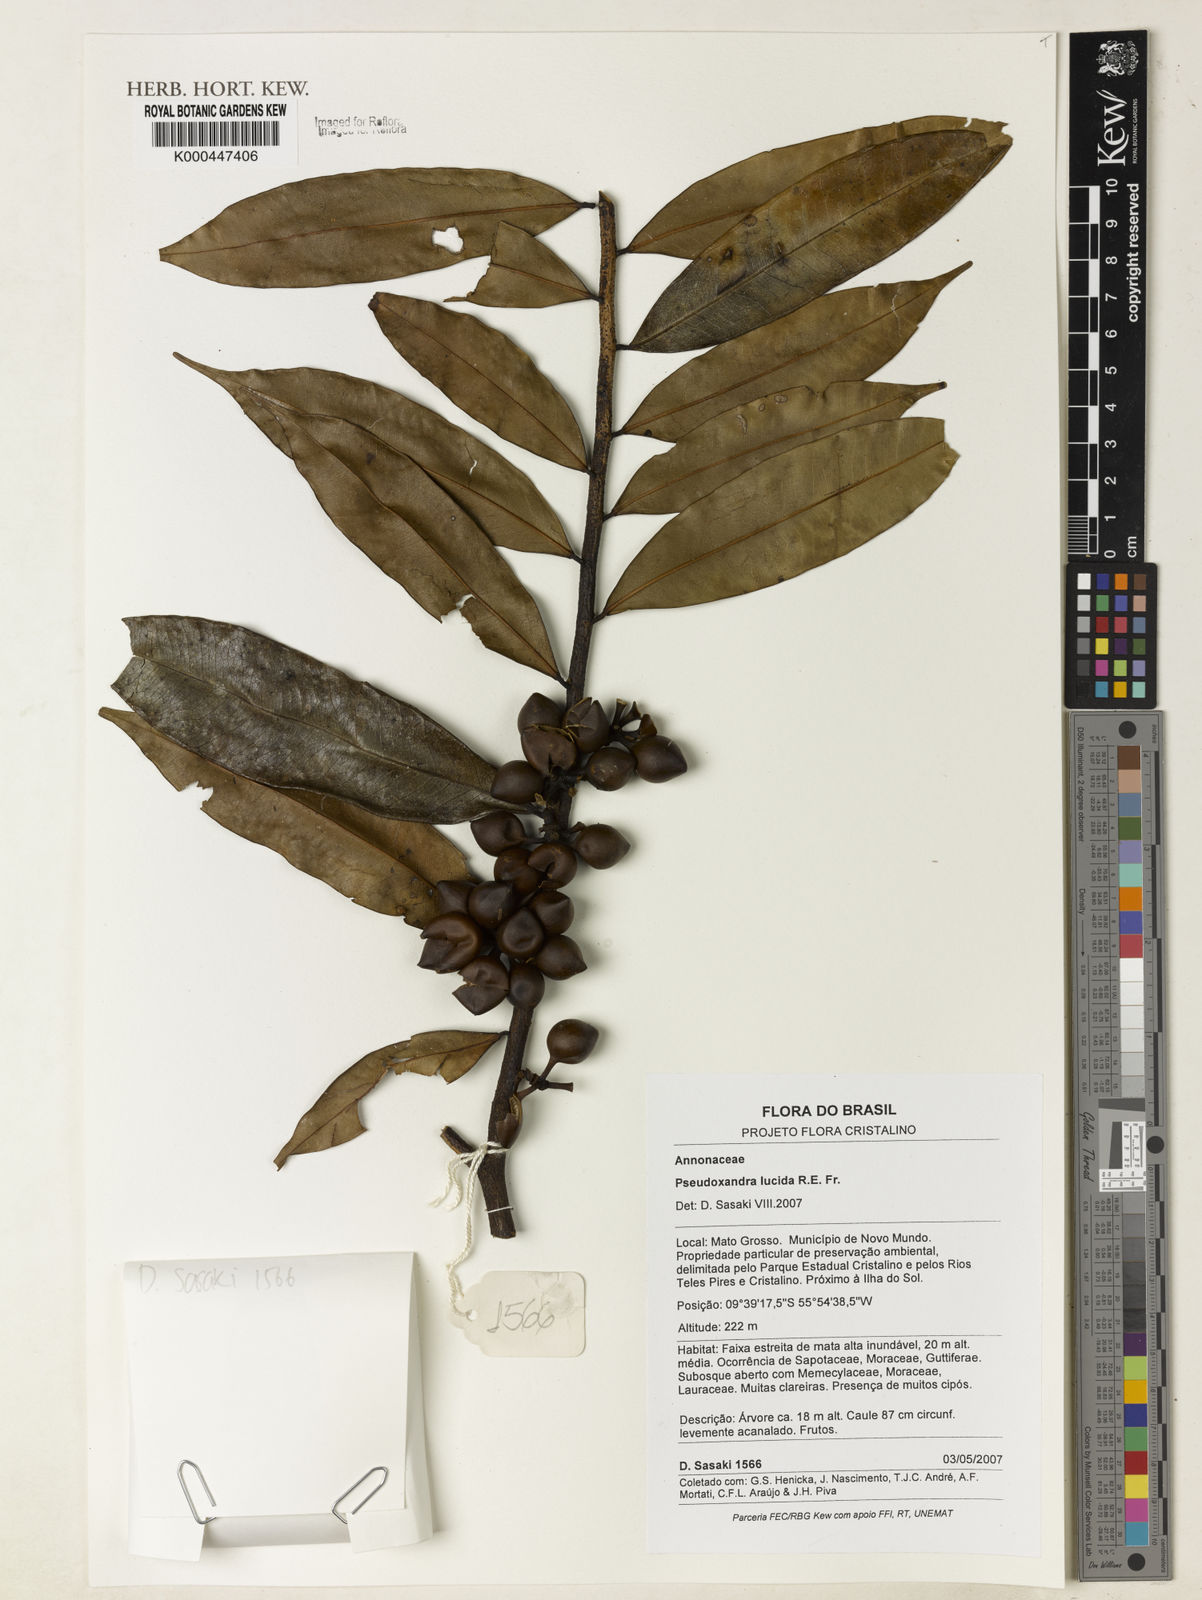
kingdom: Plantae
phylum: Tracheophyta
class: Magnoliopsida
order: Magnoliales
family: Annonaceae
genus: Pseudoxandra
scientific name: Pseudoxandra lucida
